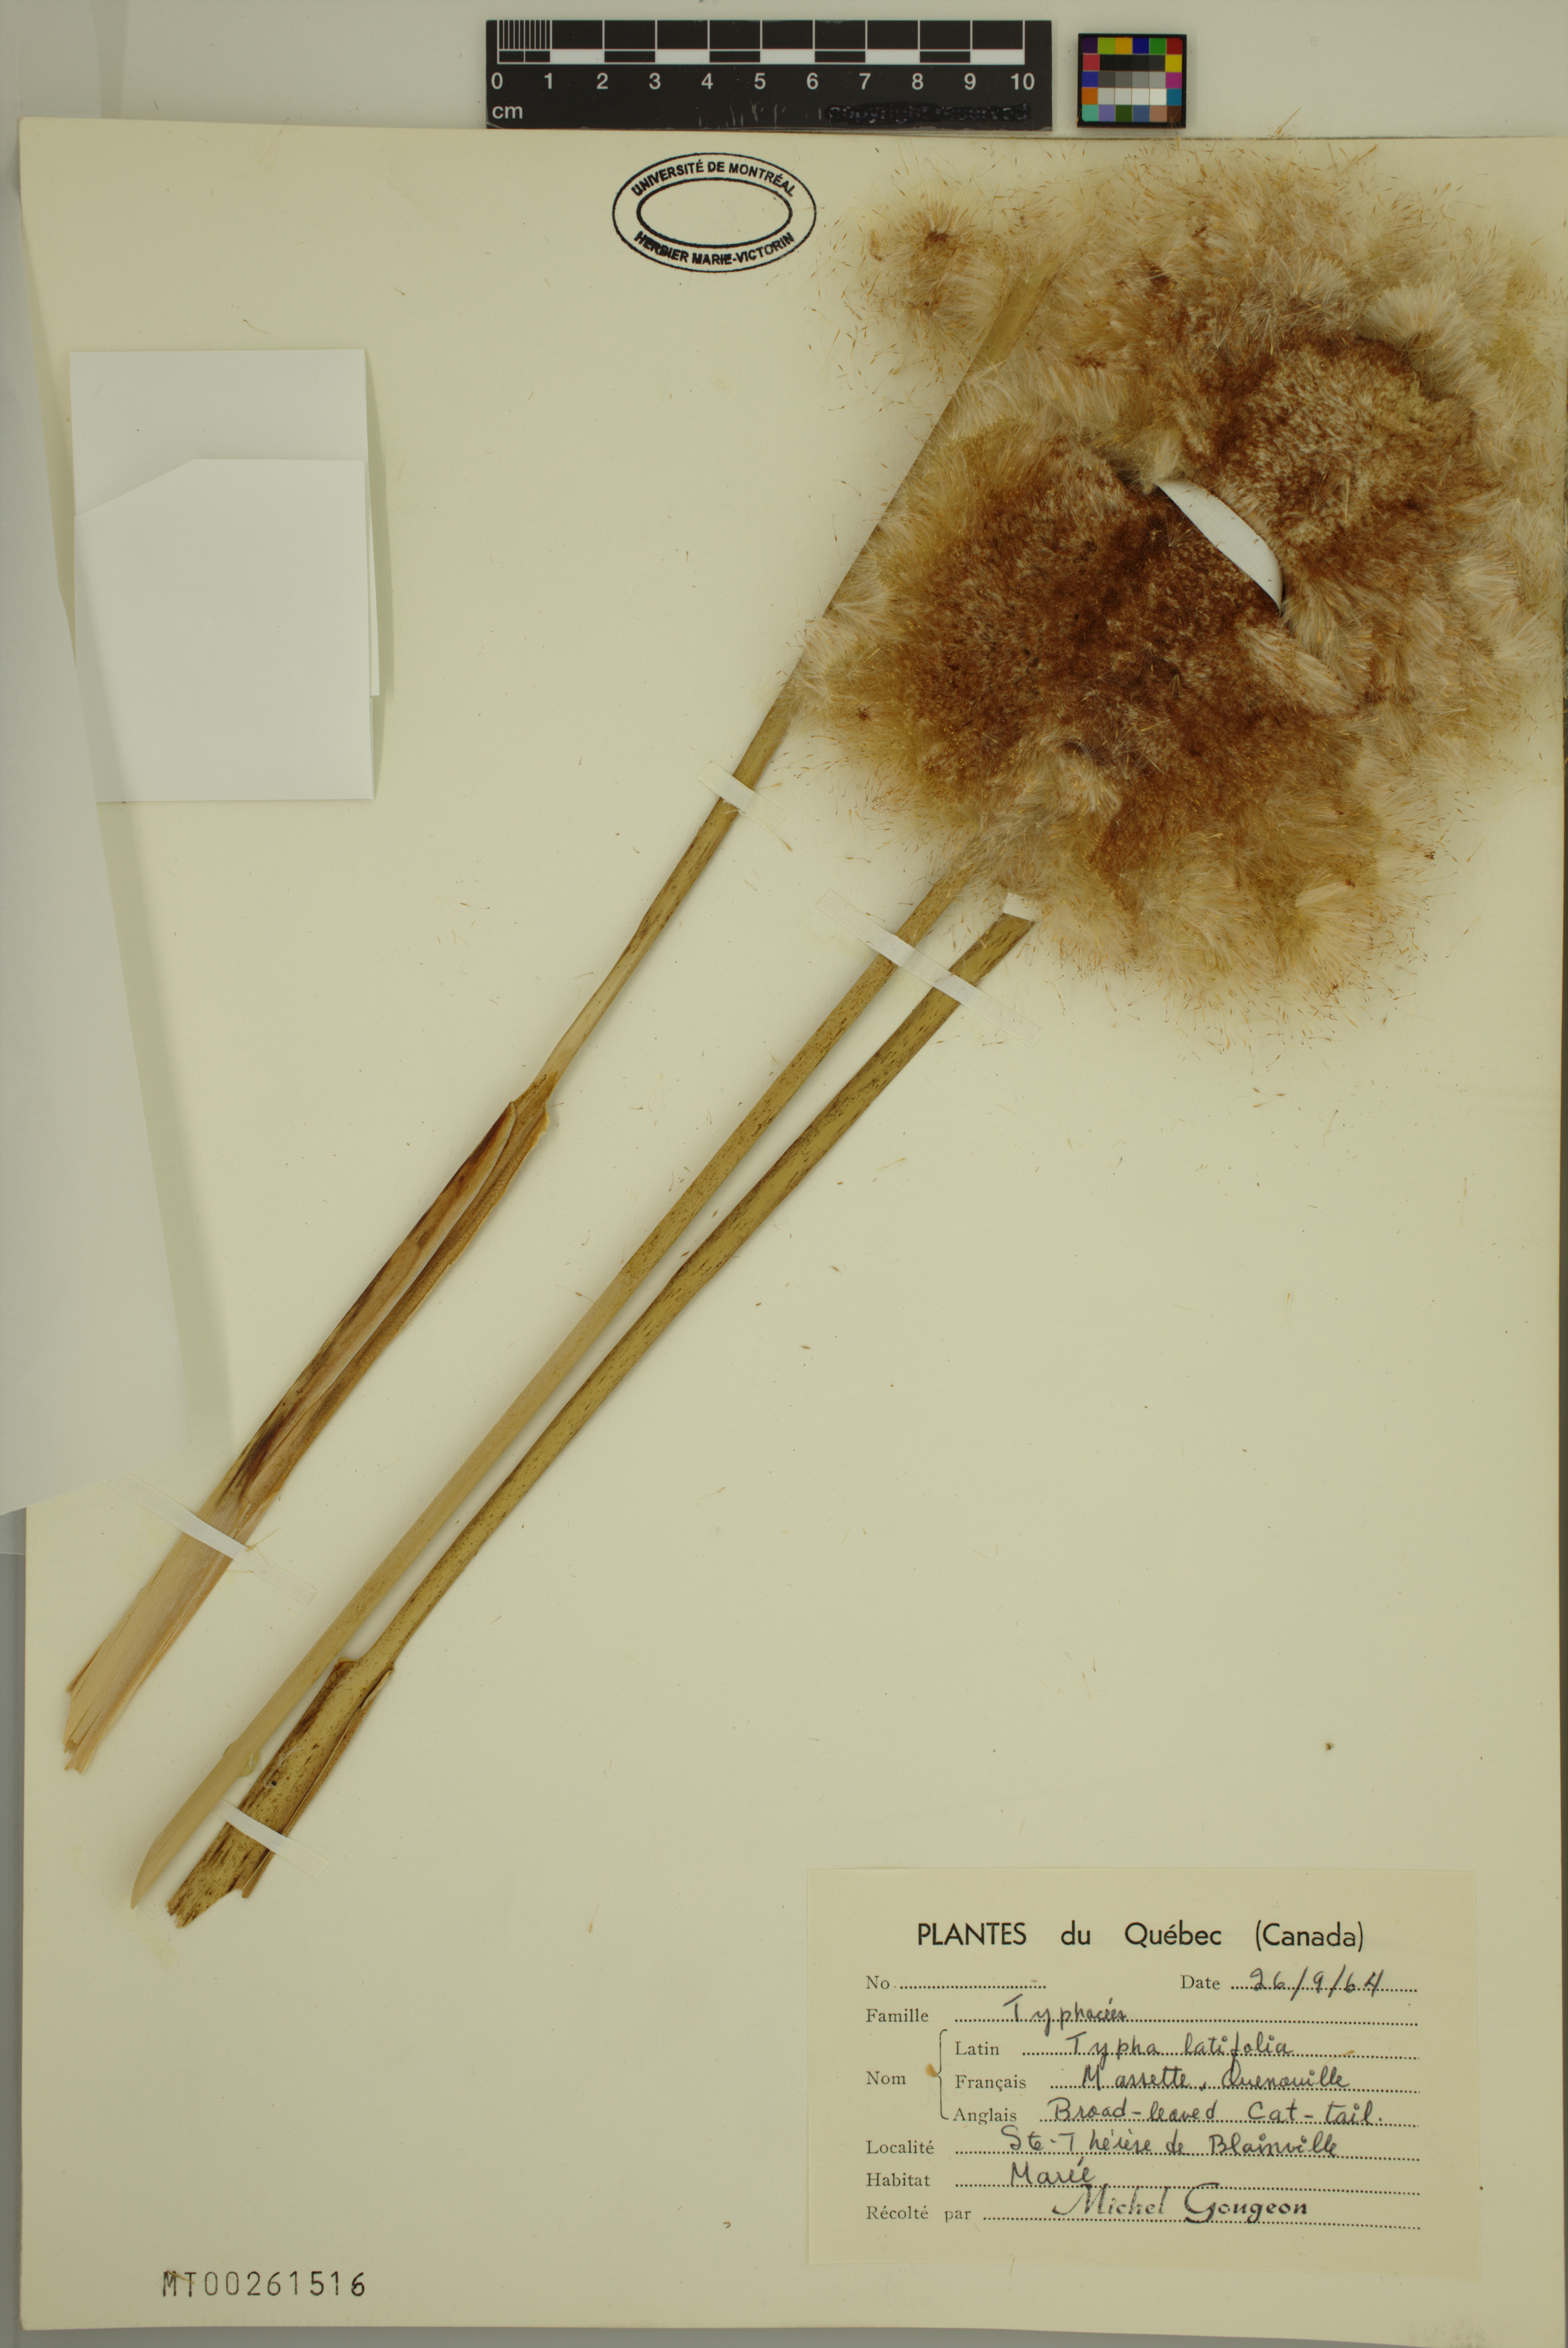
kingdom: Plantae
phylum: Tracheophyta
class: Liliopsida
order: Poales
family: Typhaceae
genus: Typha
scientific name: Typha latifolia
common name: Broadleaf cattail
